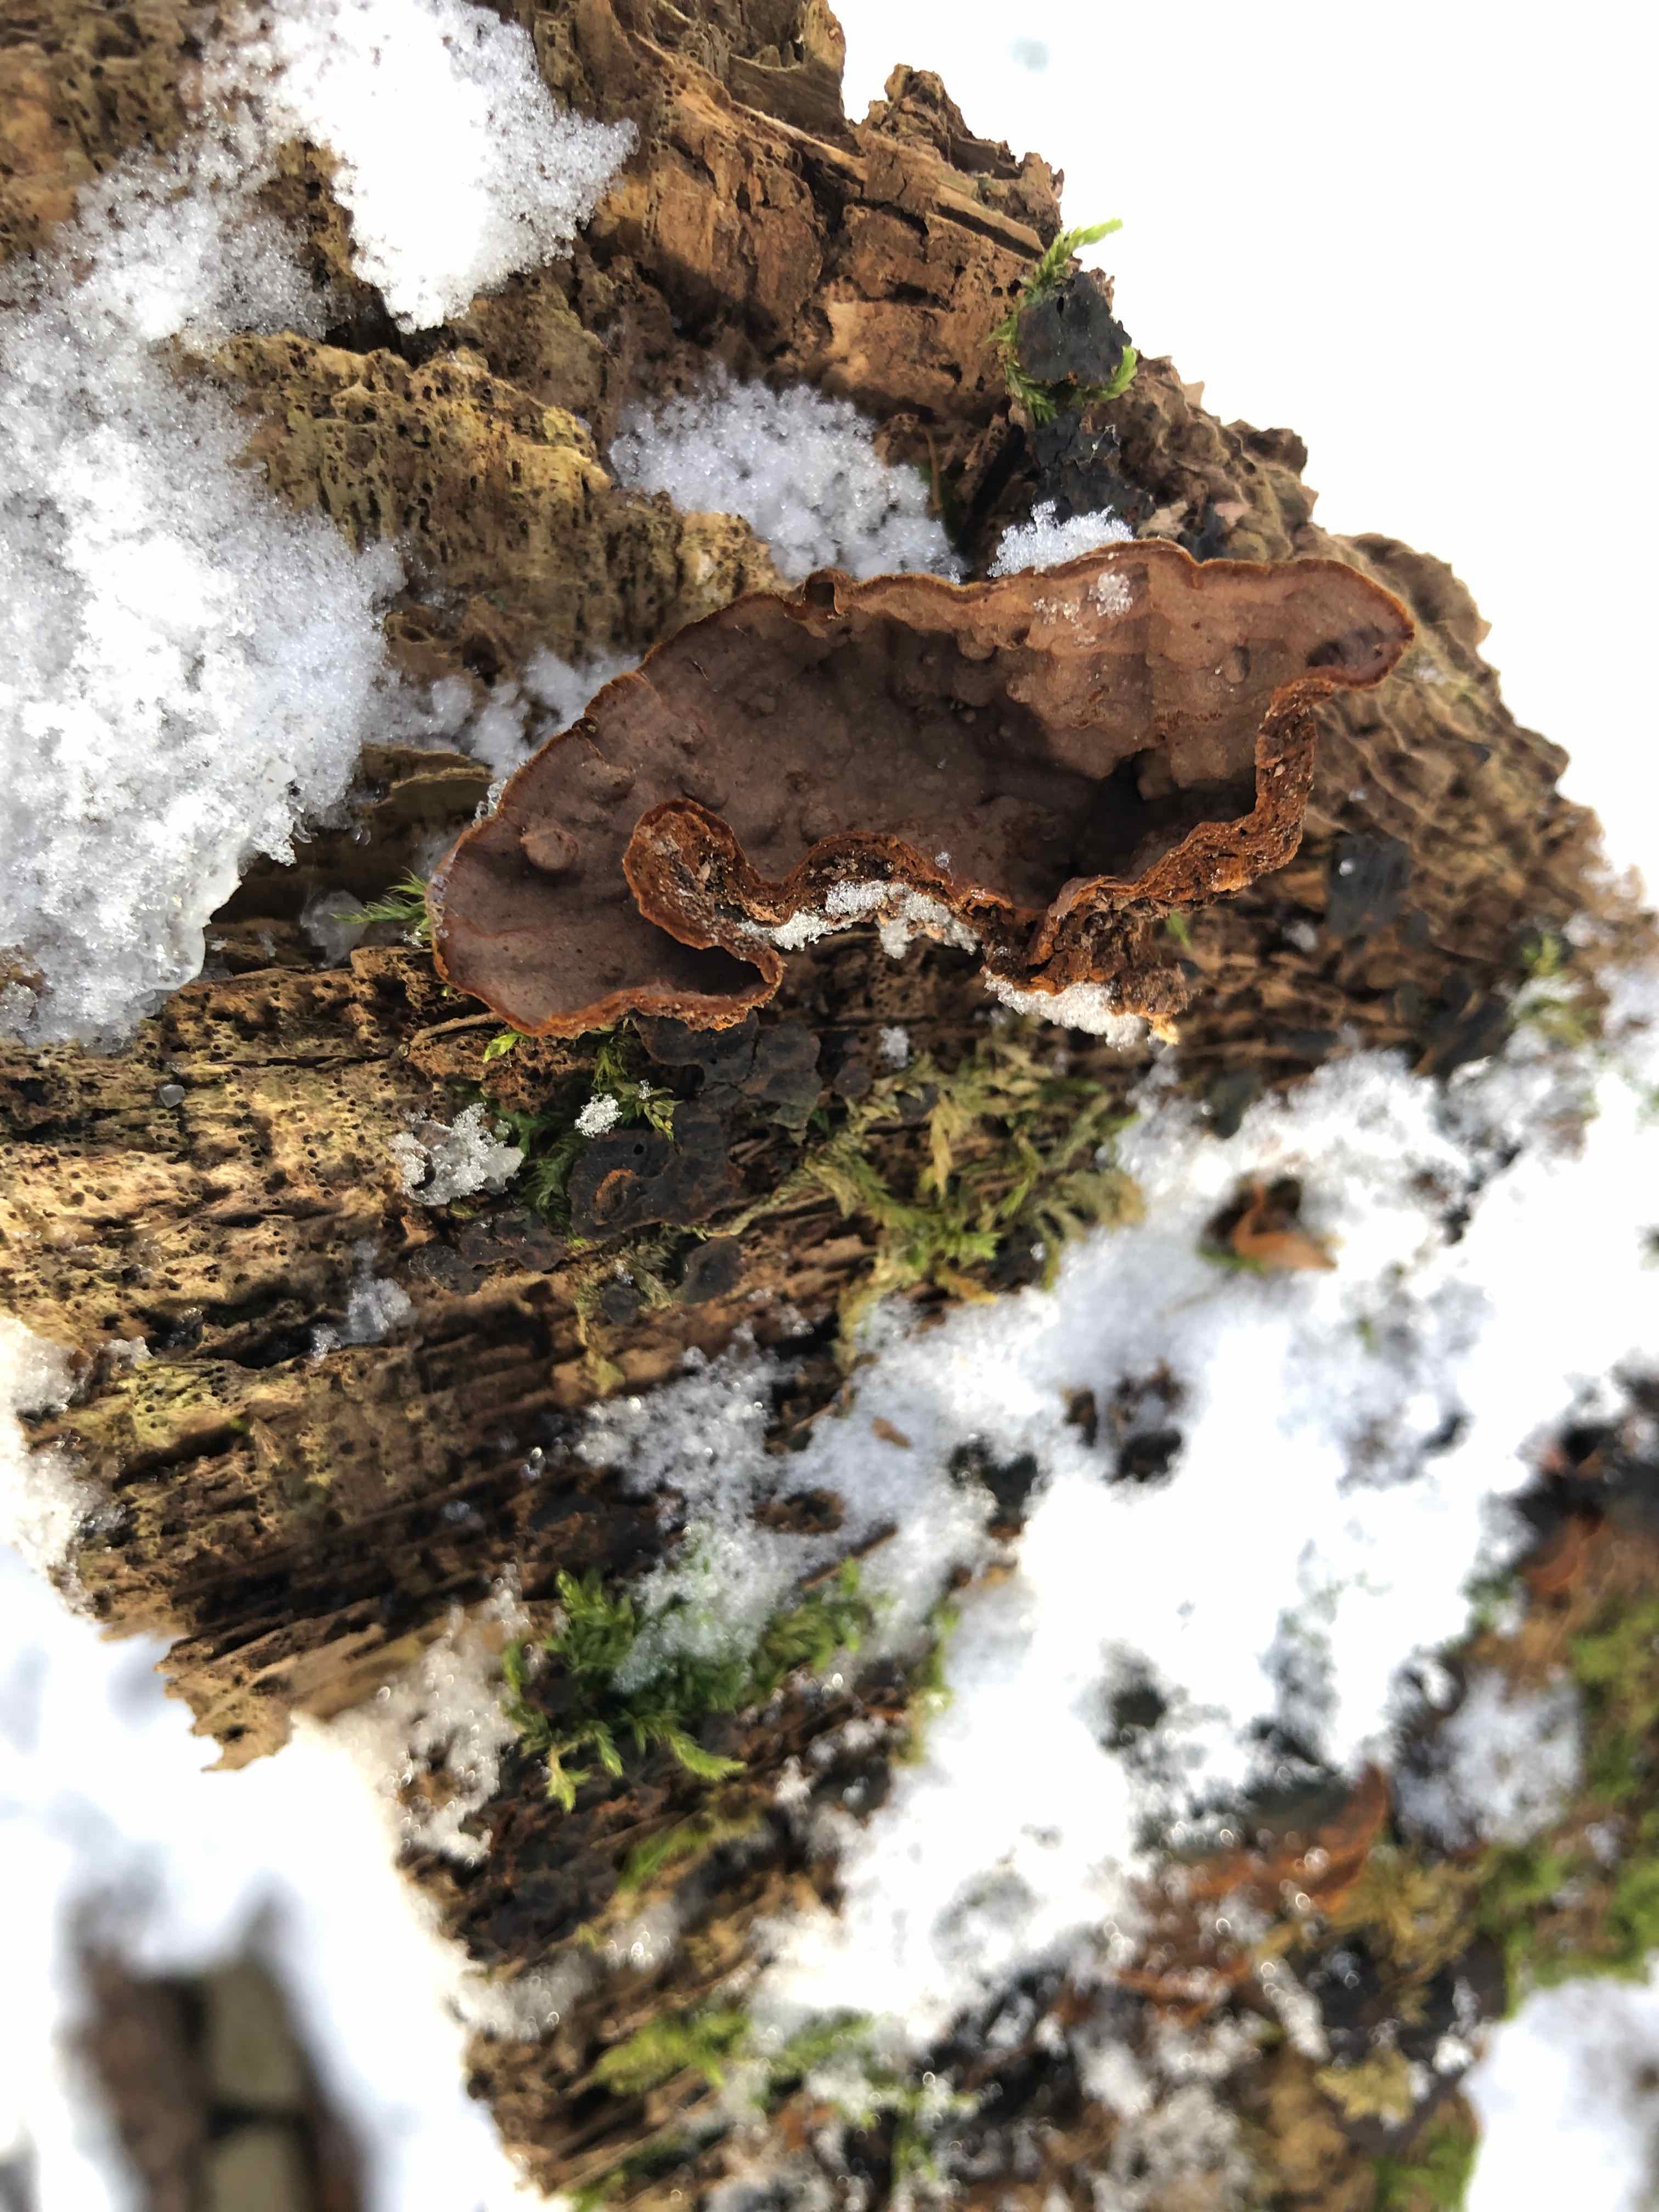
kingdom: Fungi
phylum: Basidiomycota
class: Agaricomycetes
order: Hymenochaetales
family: Hymenochaetaceae
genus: Hymenochaete
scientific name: Hymenochaete rubiginosa
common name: stiv ruslædersvamp
